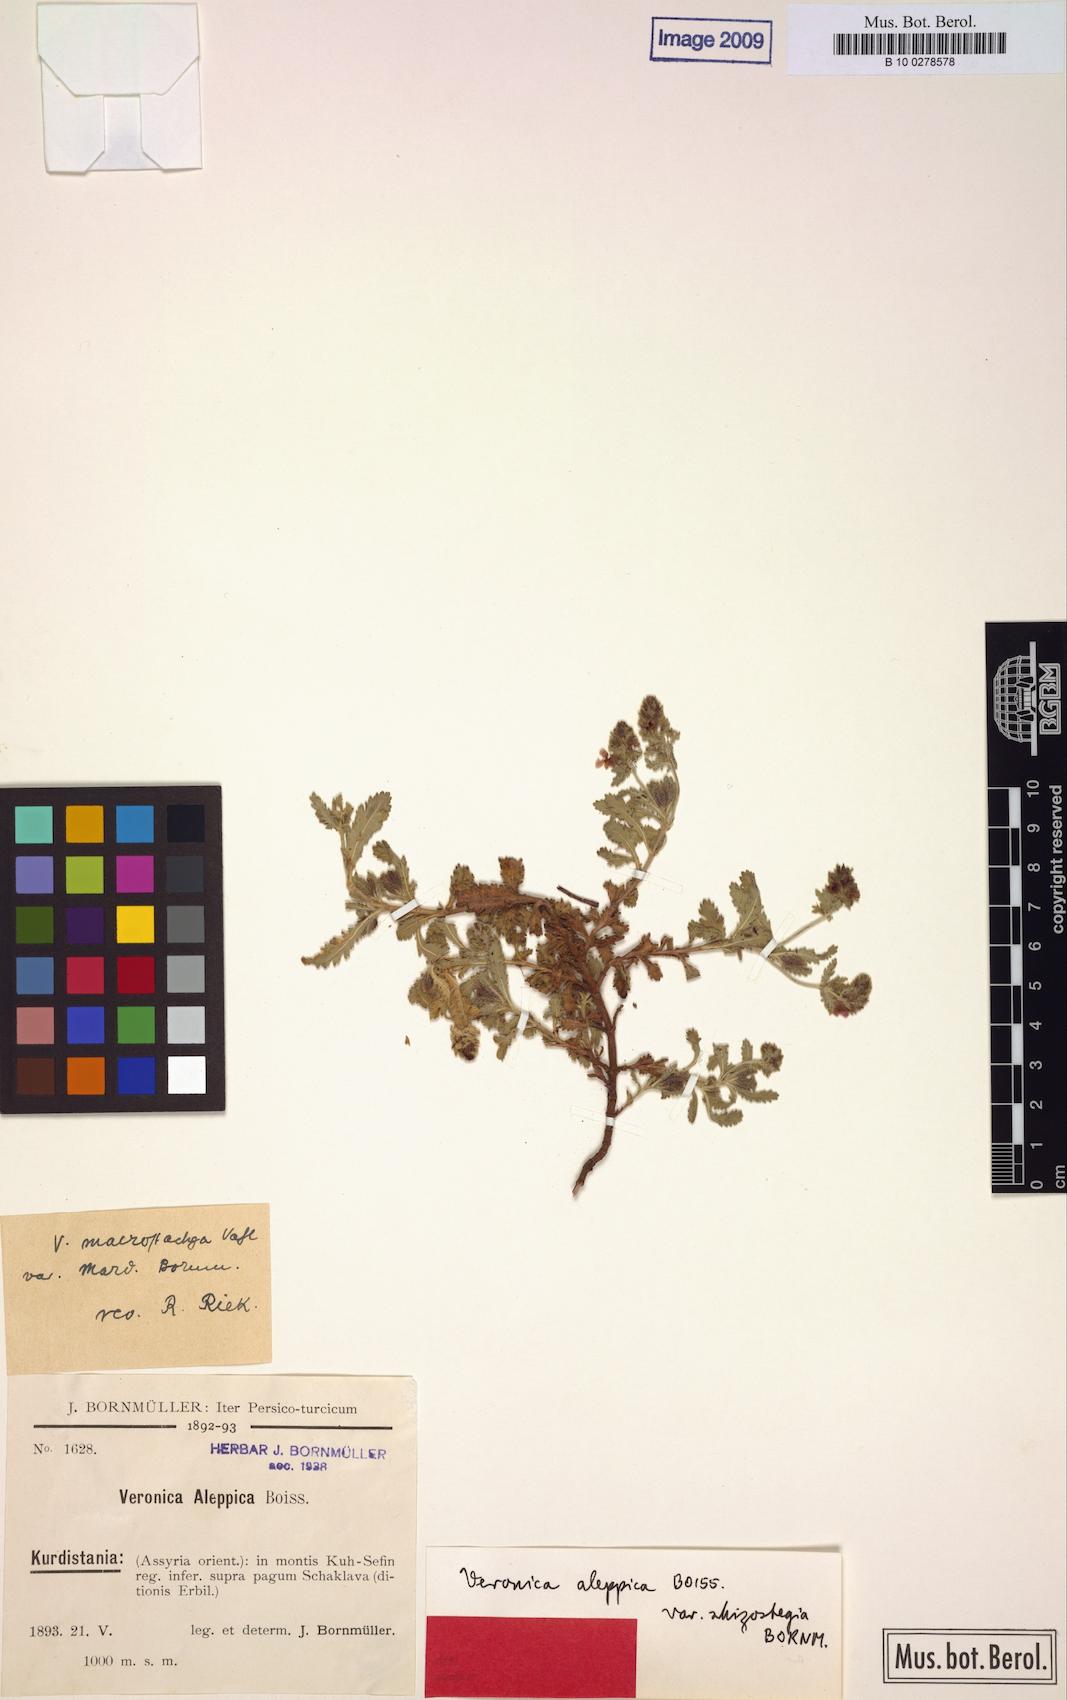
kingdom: Plantae
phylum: Tracheophyta
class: Magnoliopsida
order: Lamiales
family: Plantaginaceae
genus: Veronica
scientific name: Veronica macrostachya
